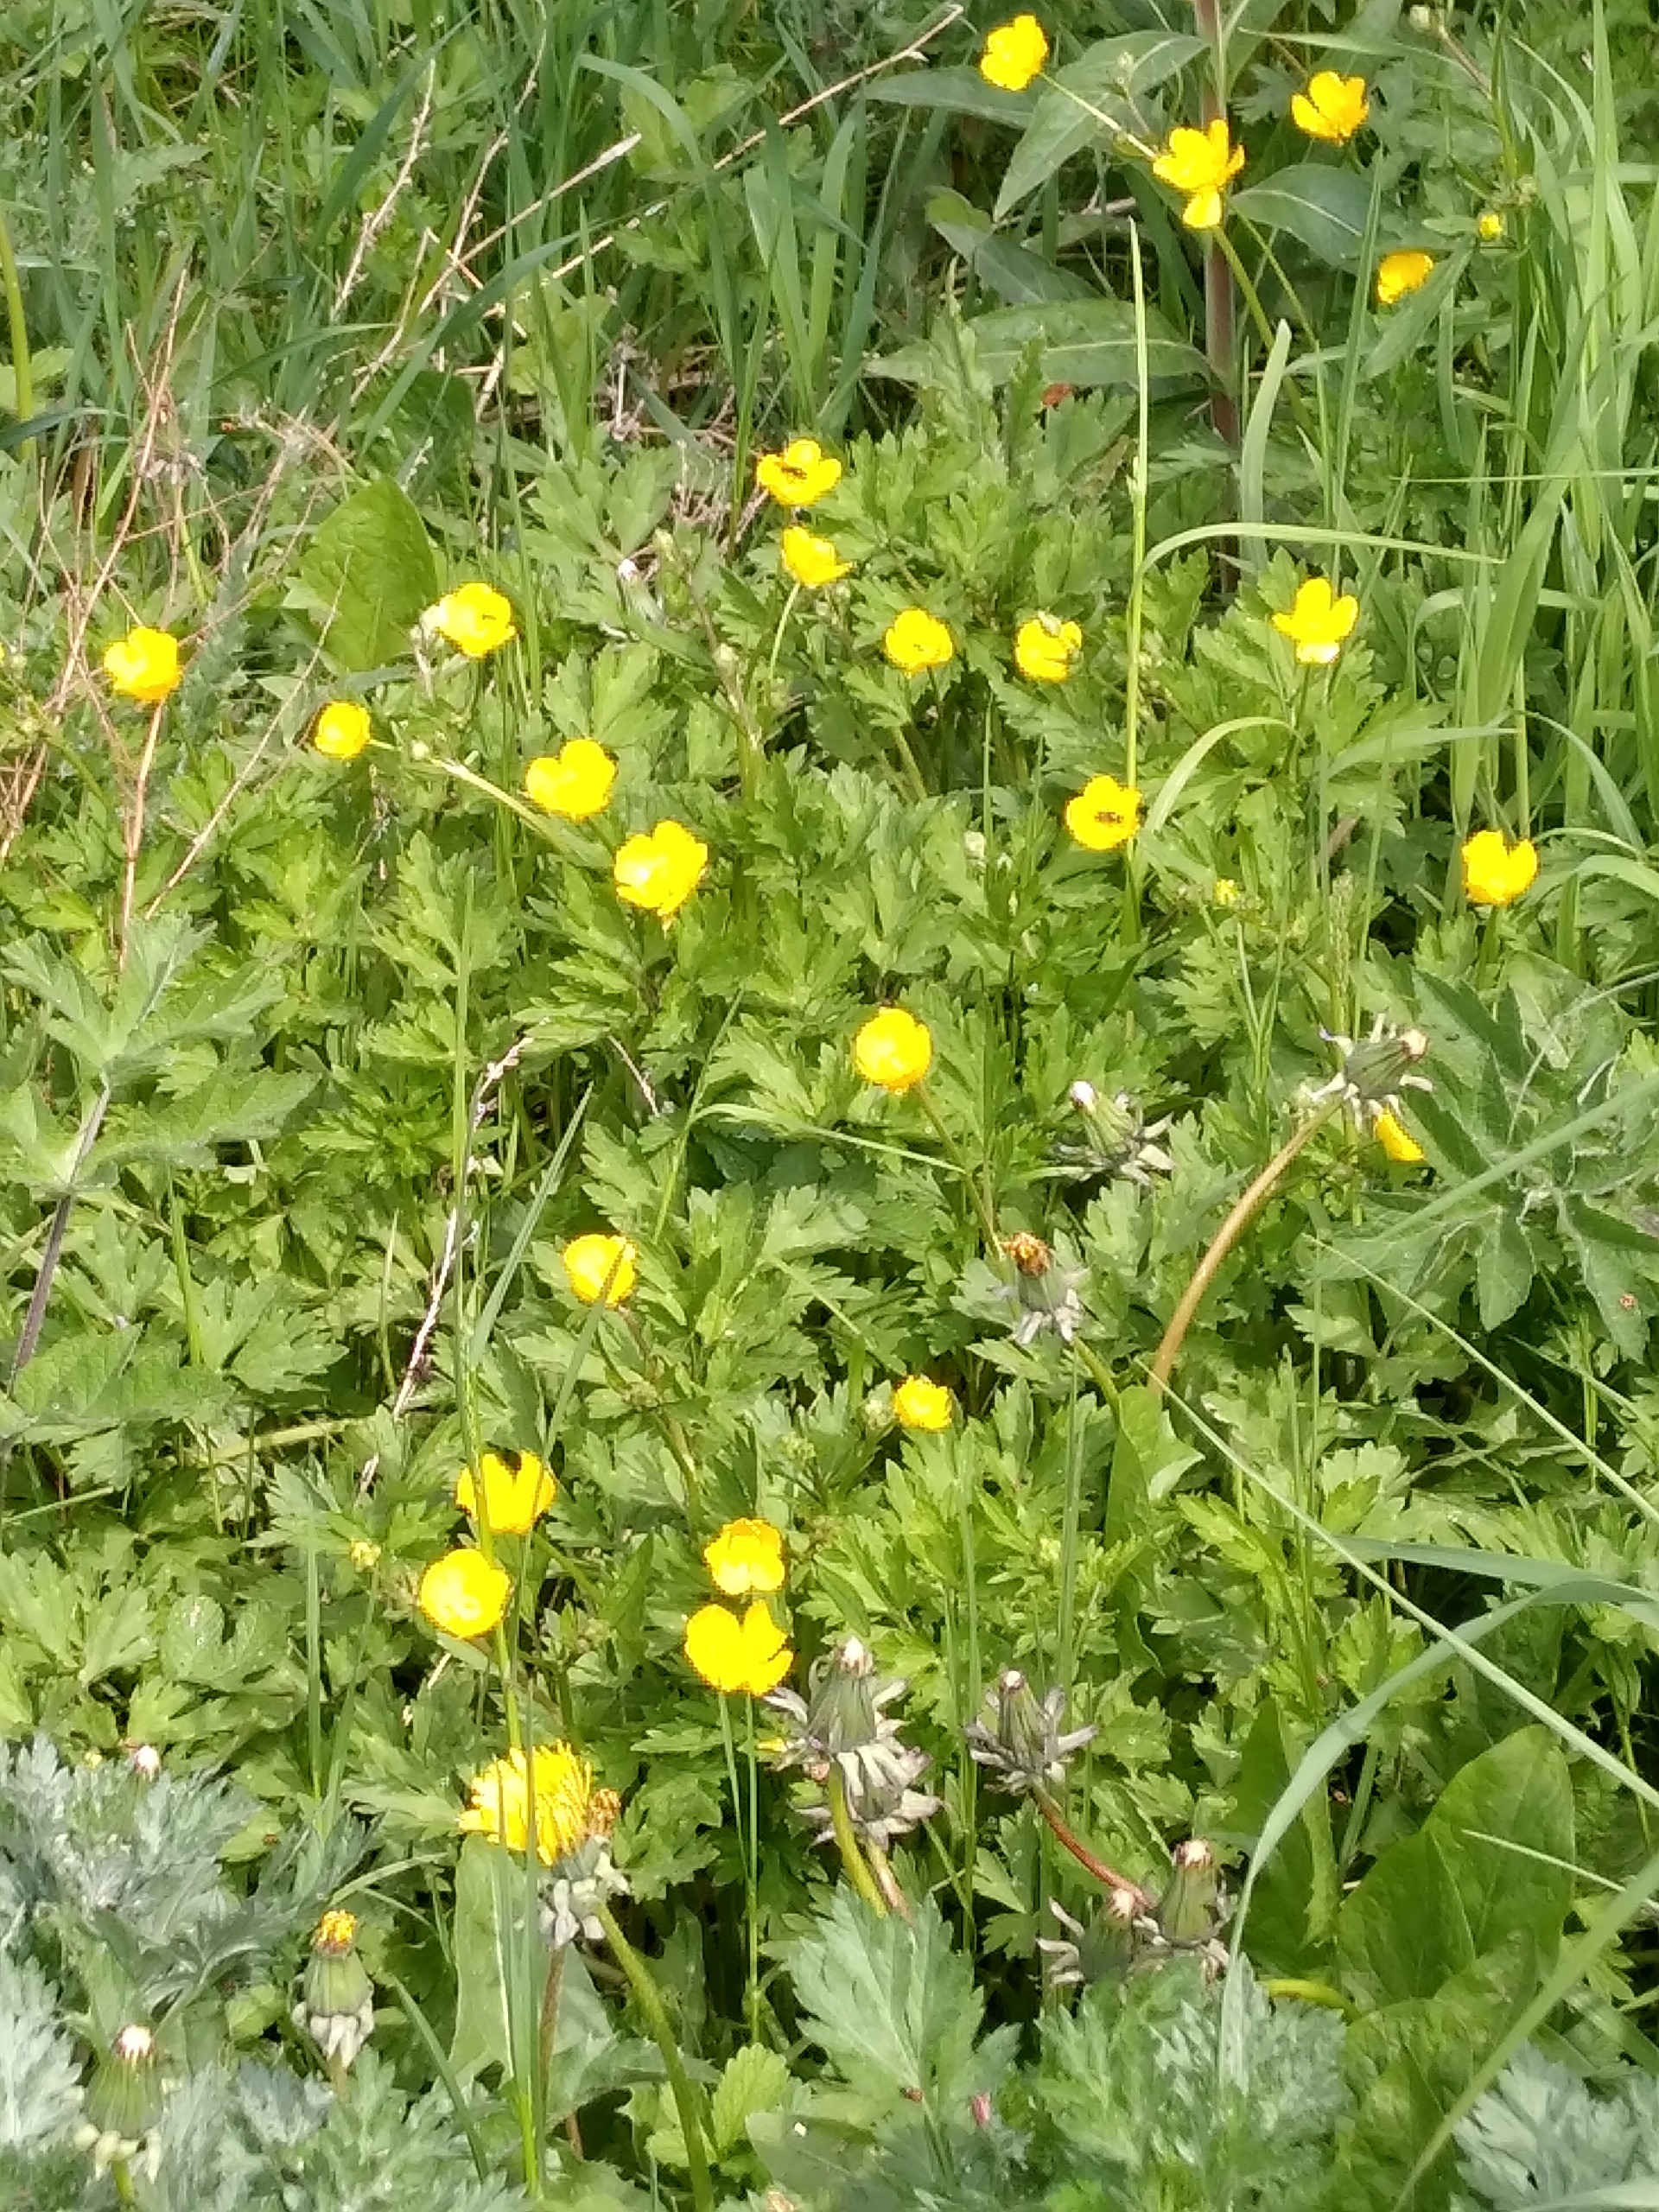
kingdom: Plantae
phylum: Tracheophyta
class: Magnoliopsida
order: Ranunculales
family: Ranunculaceae
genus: Ranunculus
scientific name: Ranunculus repens
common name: Lav ranunkel
